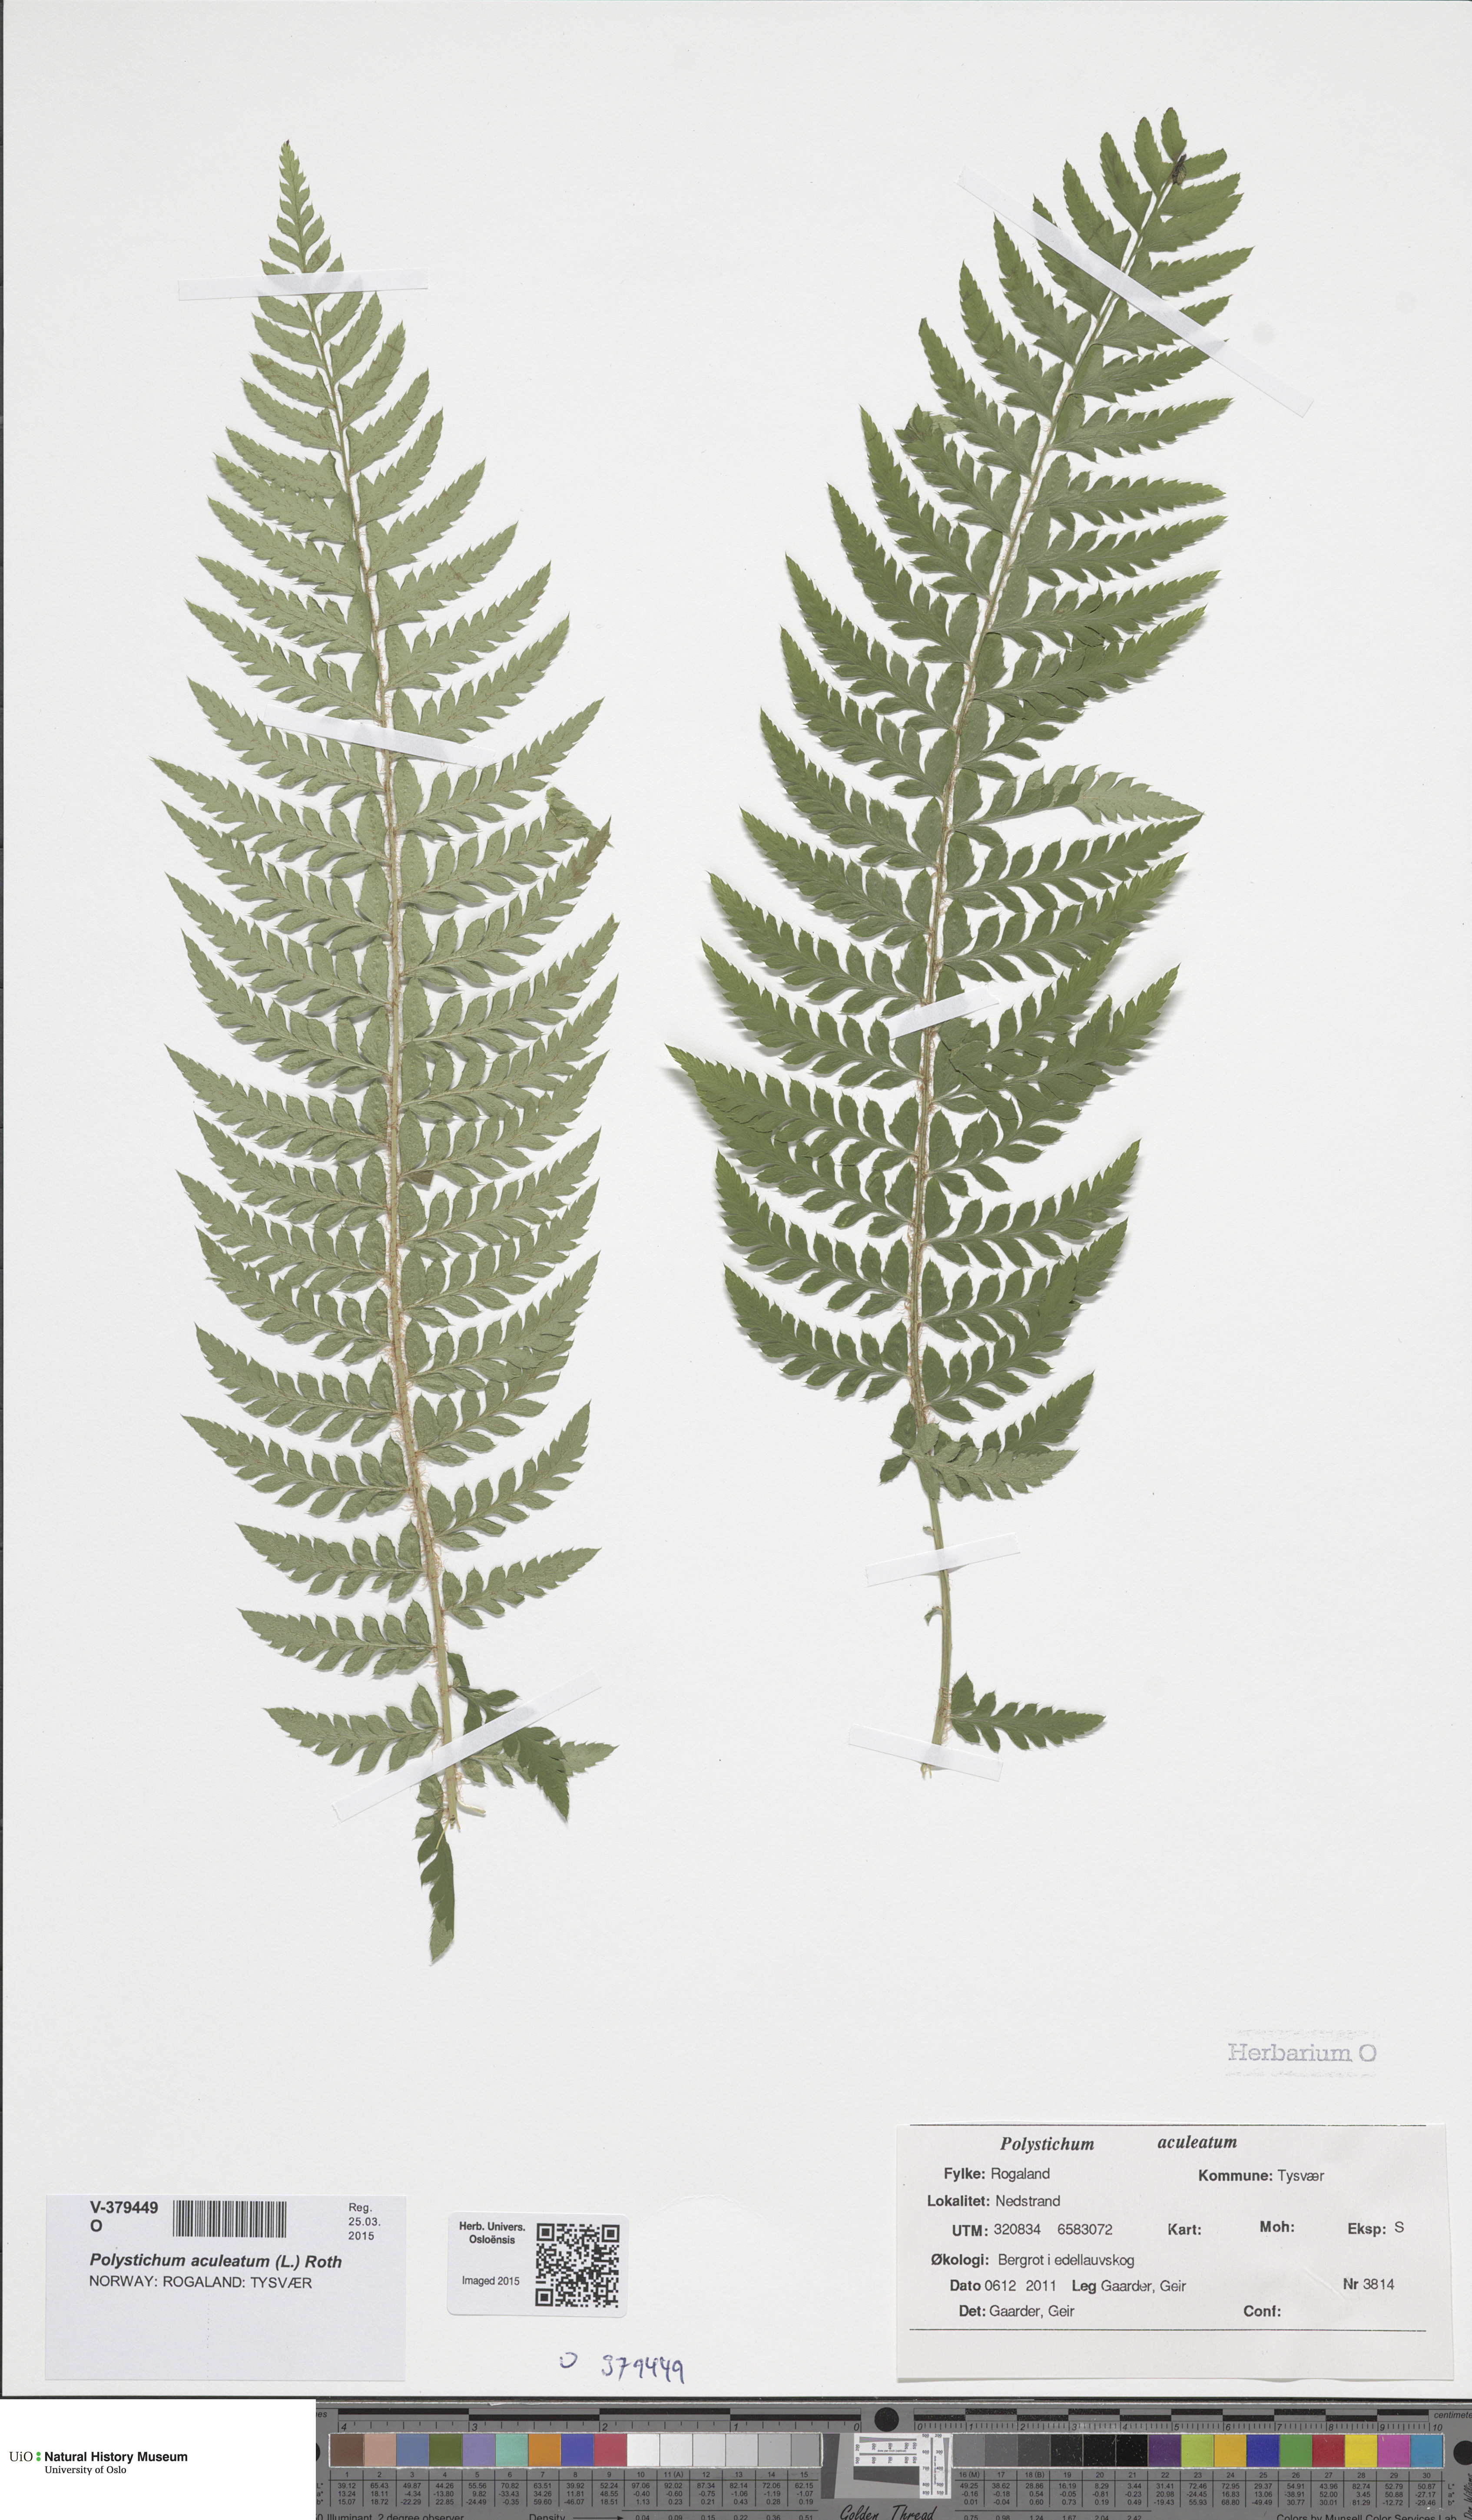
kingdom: Plantae
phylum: Tracheophyta
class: Polypodiopsida
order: Polypodiales
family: Dryopteridaceae
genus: Polystichum
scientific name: Polystichum aculeatum
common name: Hard shield-fern
